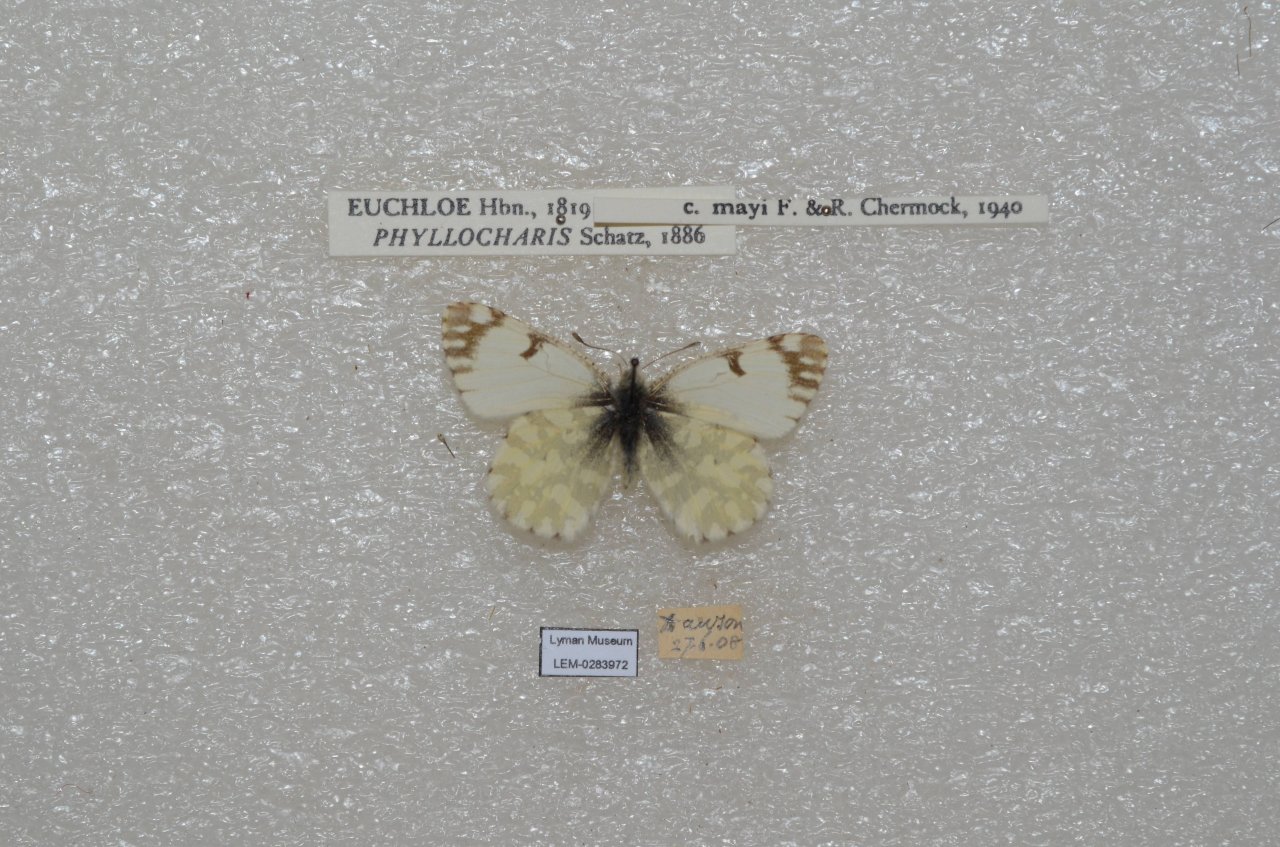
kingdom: Animalia
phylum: Arthropoda
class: Insecta
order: Lepidoptera
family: Pieridae
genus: Euchloe
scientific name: Euchloe ausonides
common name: Large Marble
